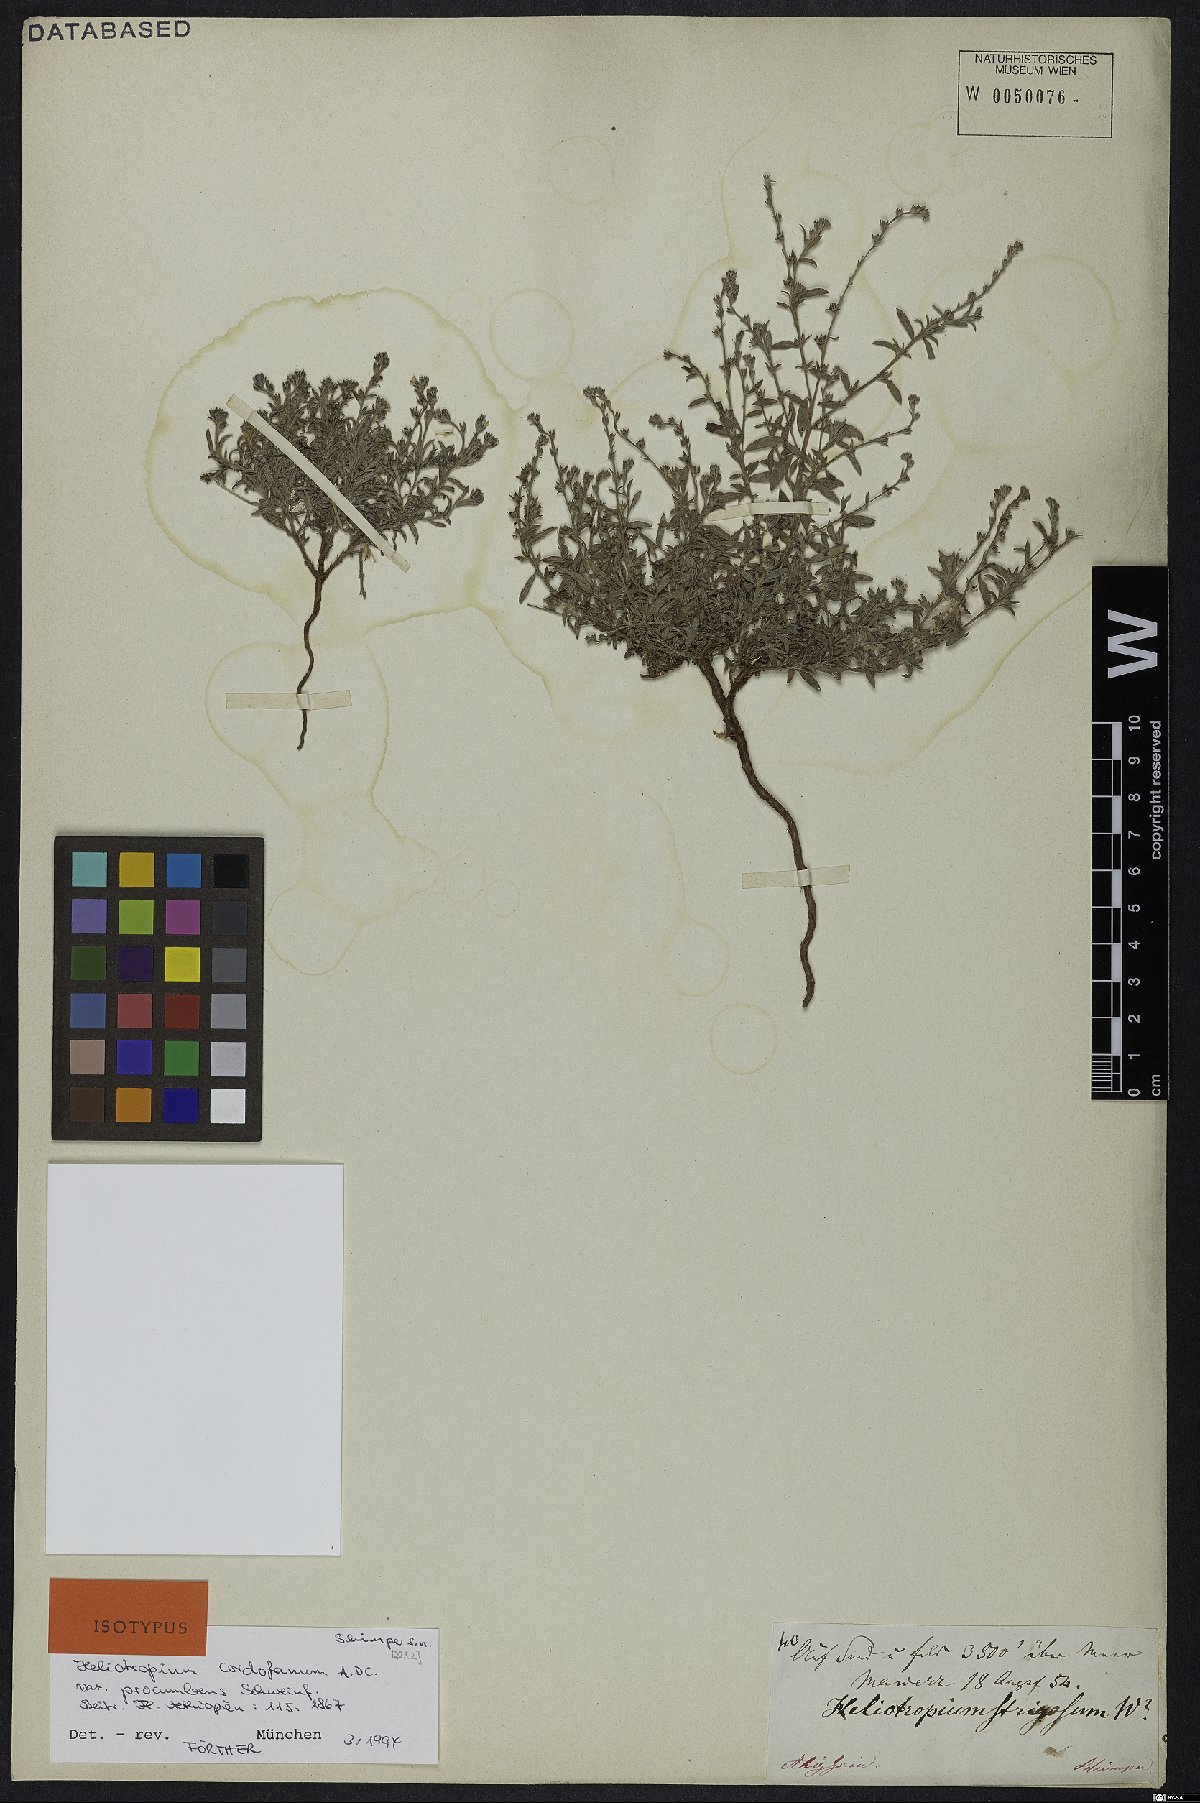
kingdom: Plantae
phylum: Tracheophyta
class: Magnoliopsida
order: Boraginales
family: Heliotropiaceae
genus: Euploca
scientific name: Euploca strigosa
